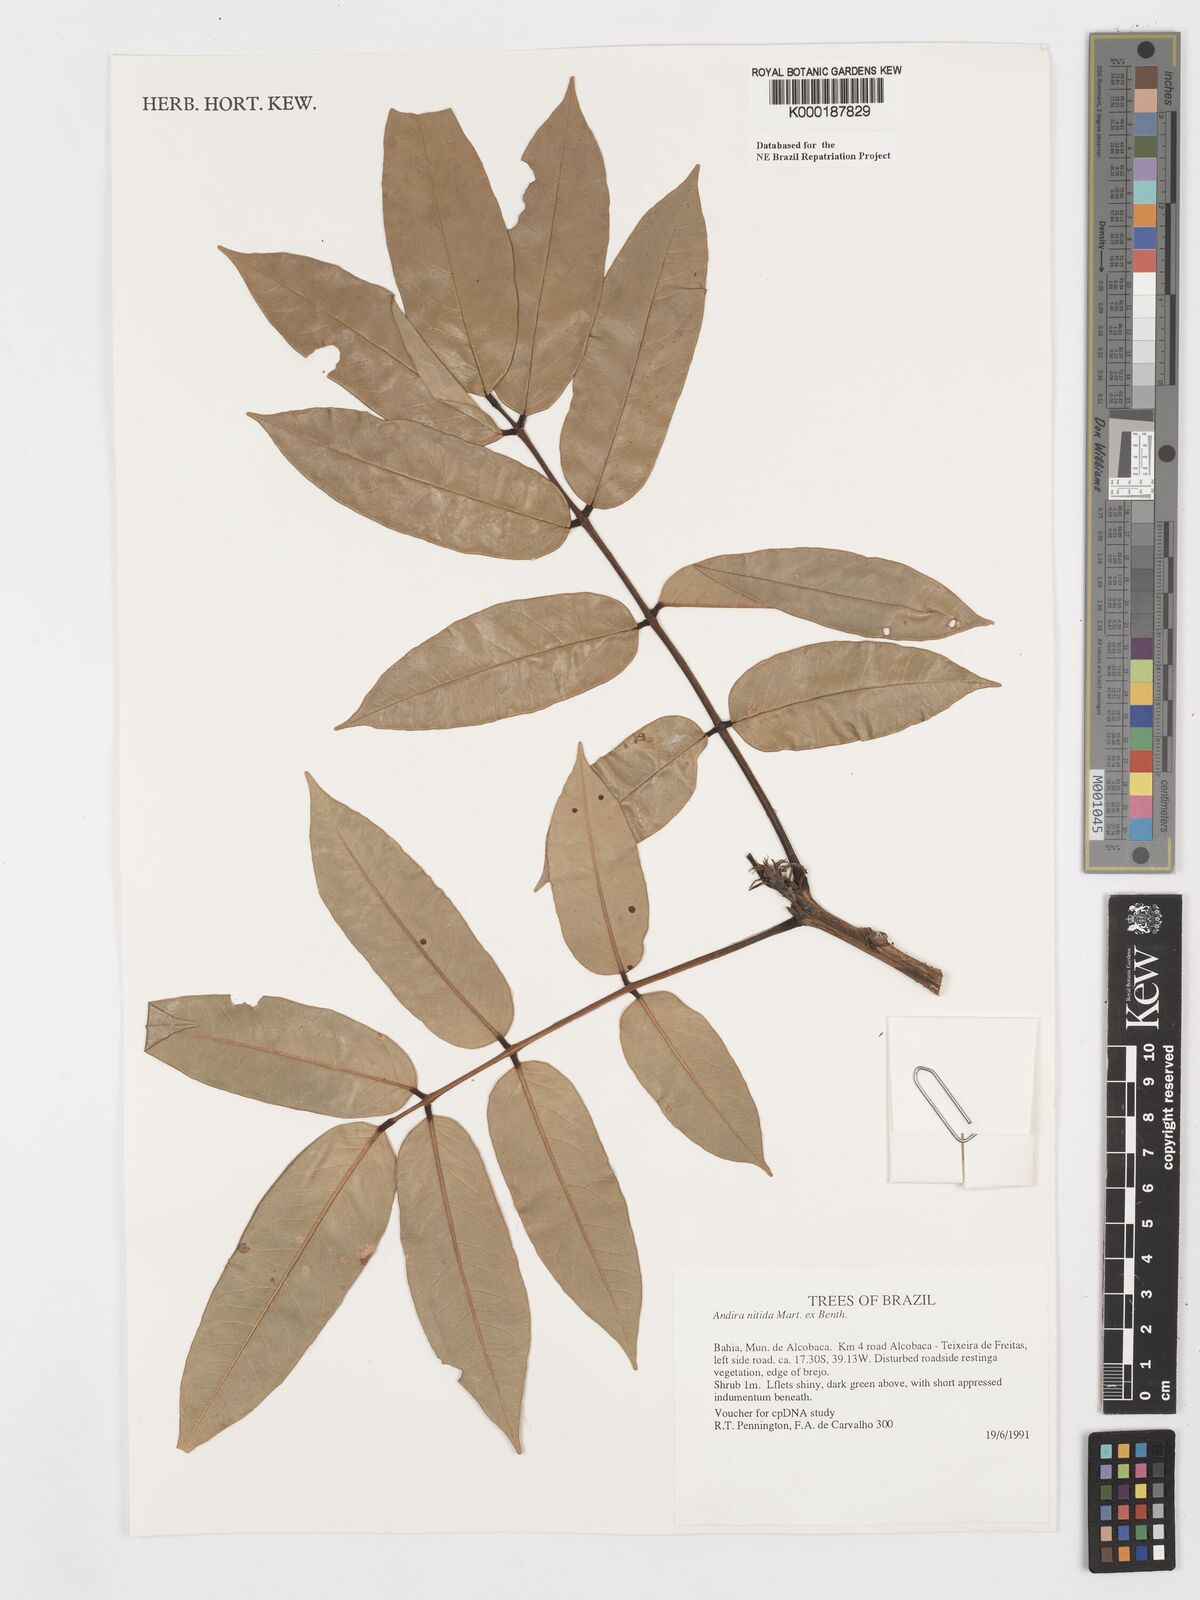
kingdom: Plantae
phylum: Tracheophyta
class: Magnoliopsida
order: Fabales
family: Fabaceae
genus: Andira
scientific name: Andira nitida
